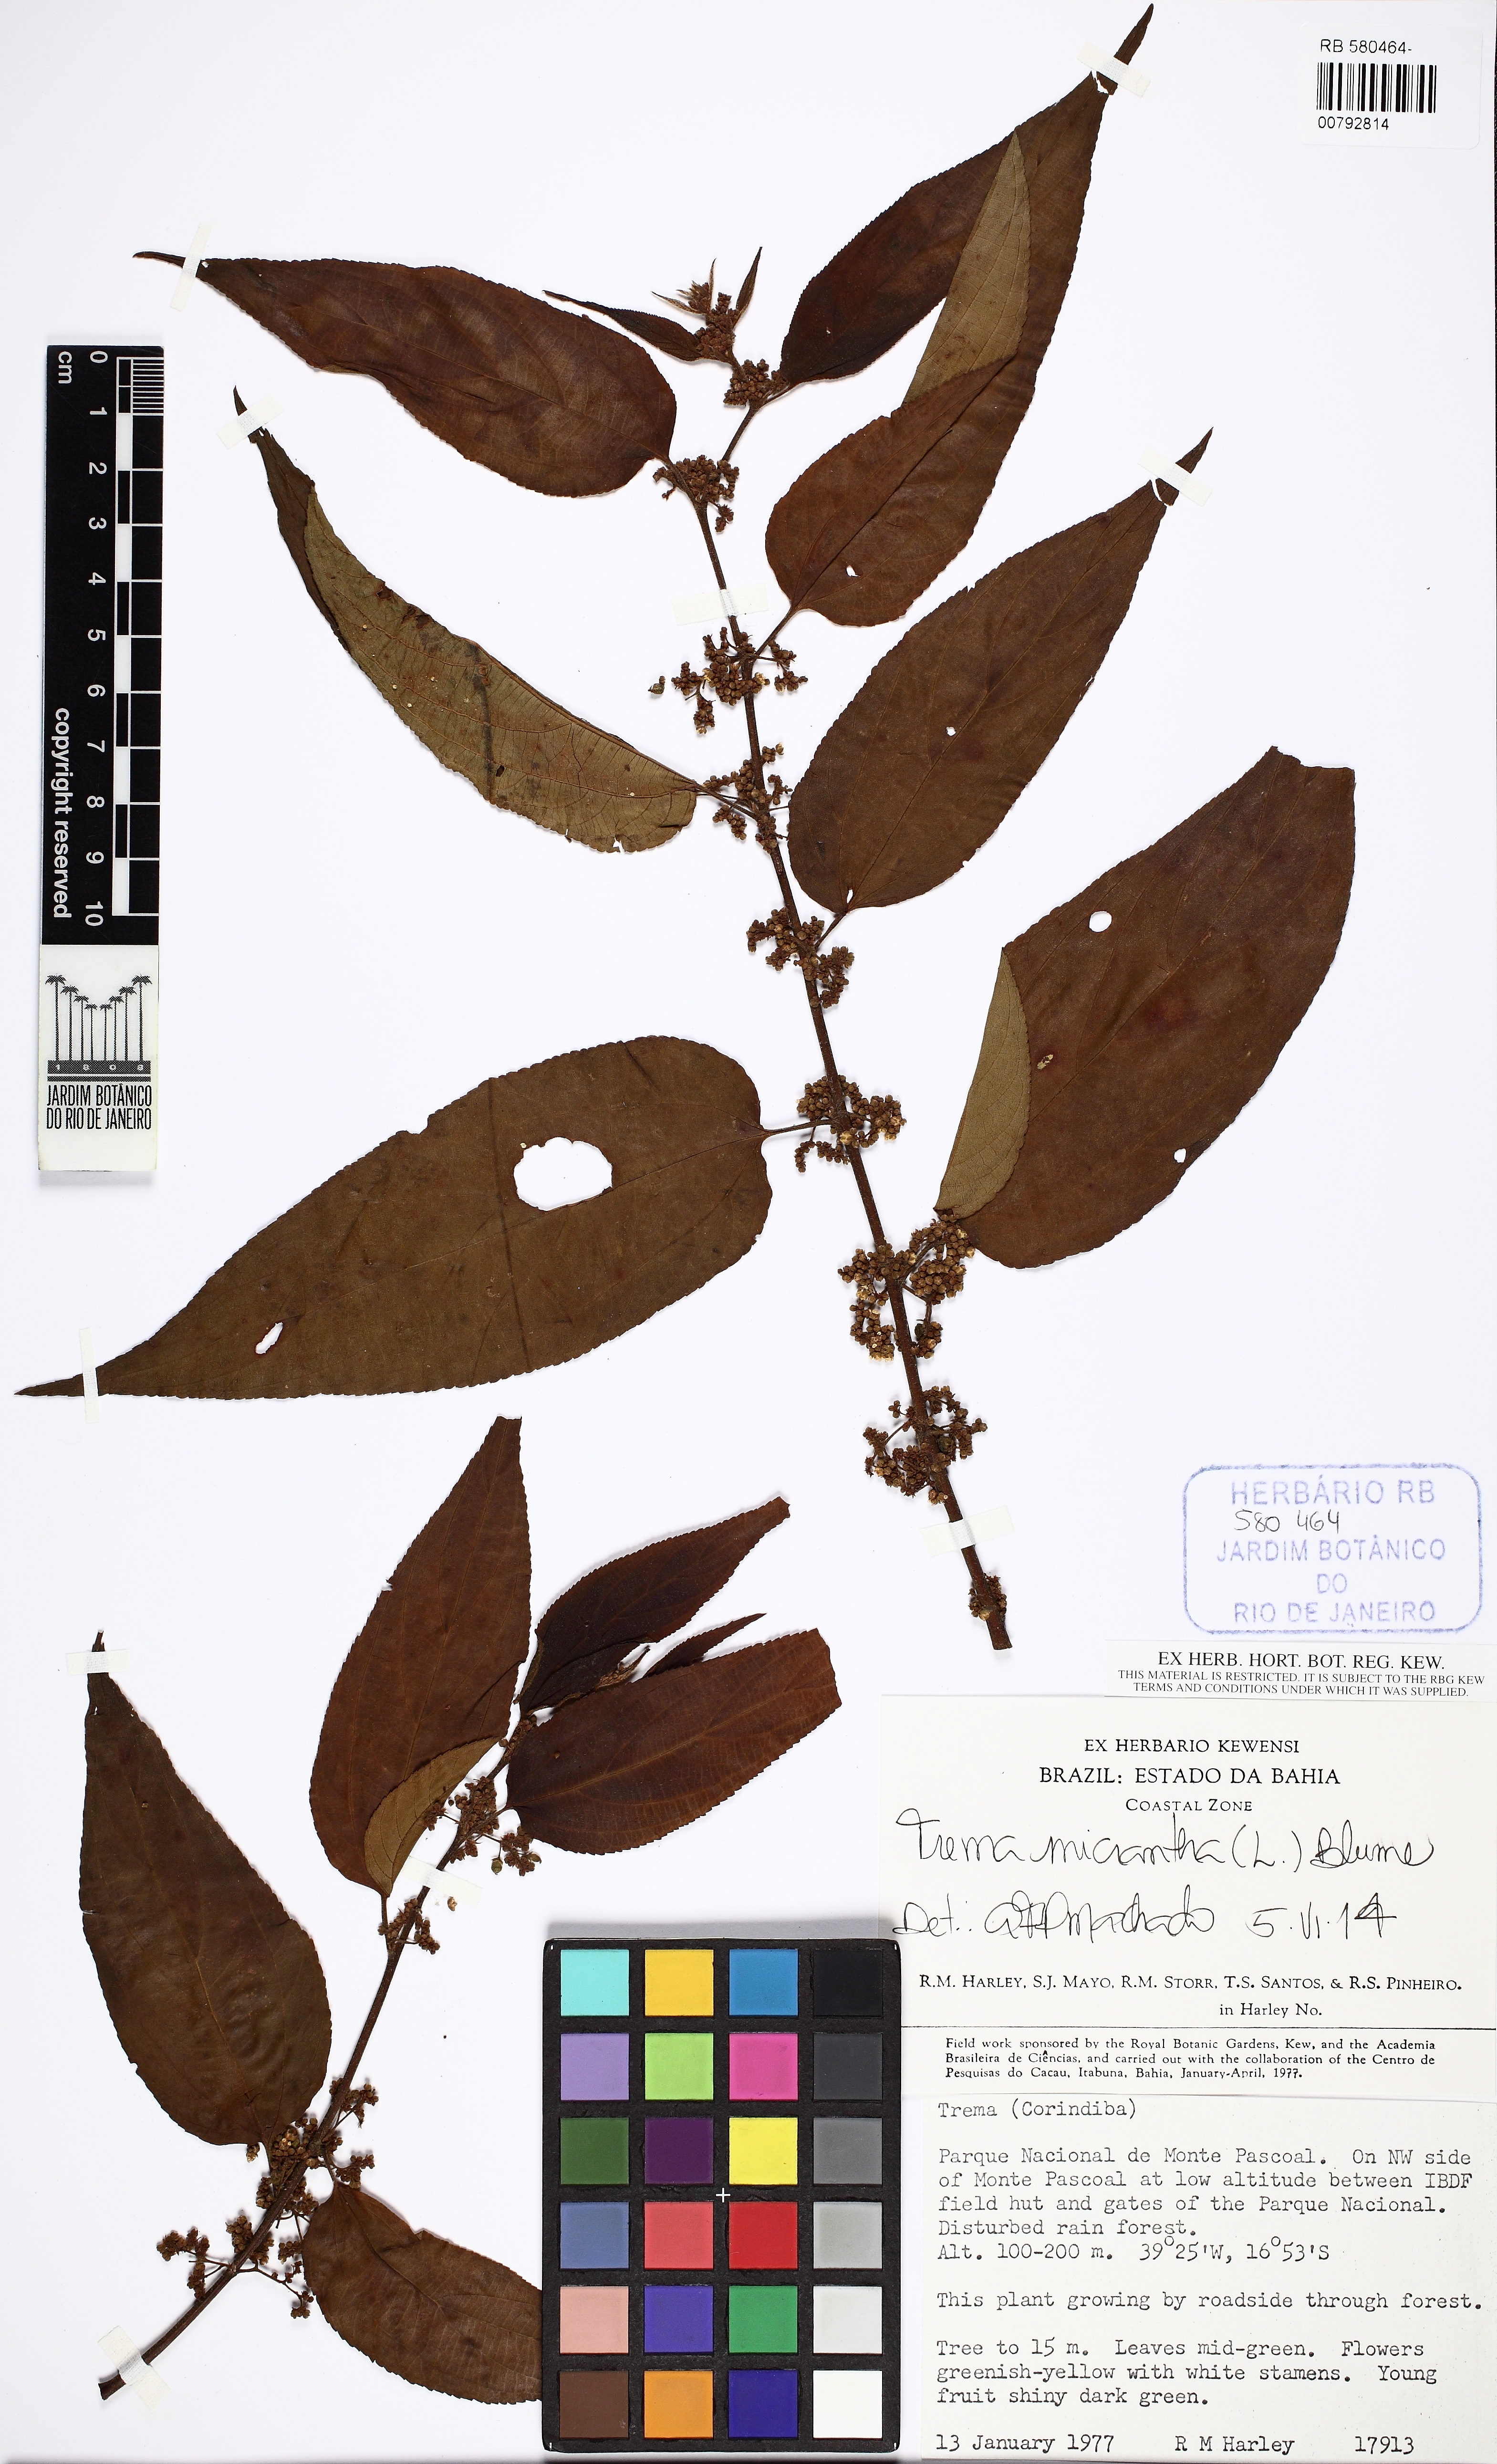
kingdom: Plantae
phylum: Tracheophyta
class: Magnoliopsida
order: Rosales
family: Cannabaceae
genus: Trema
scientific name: Trema micranthum
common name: Jamaican nettletree
